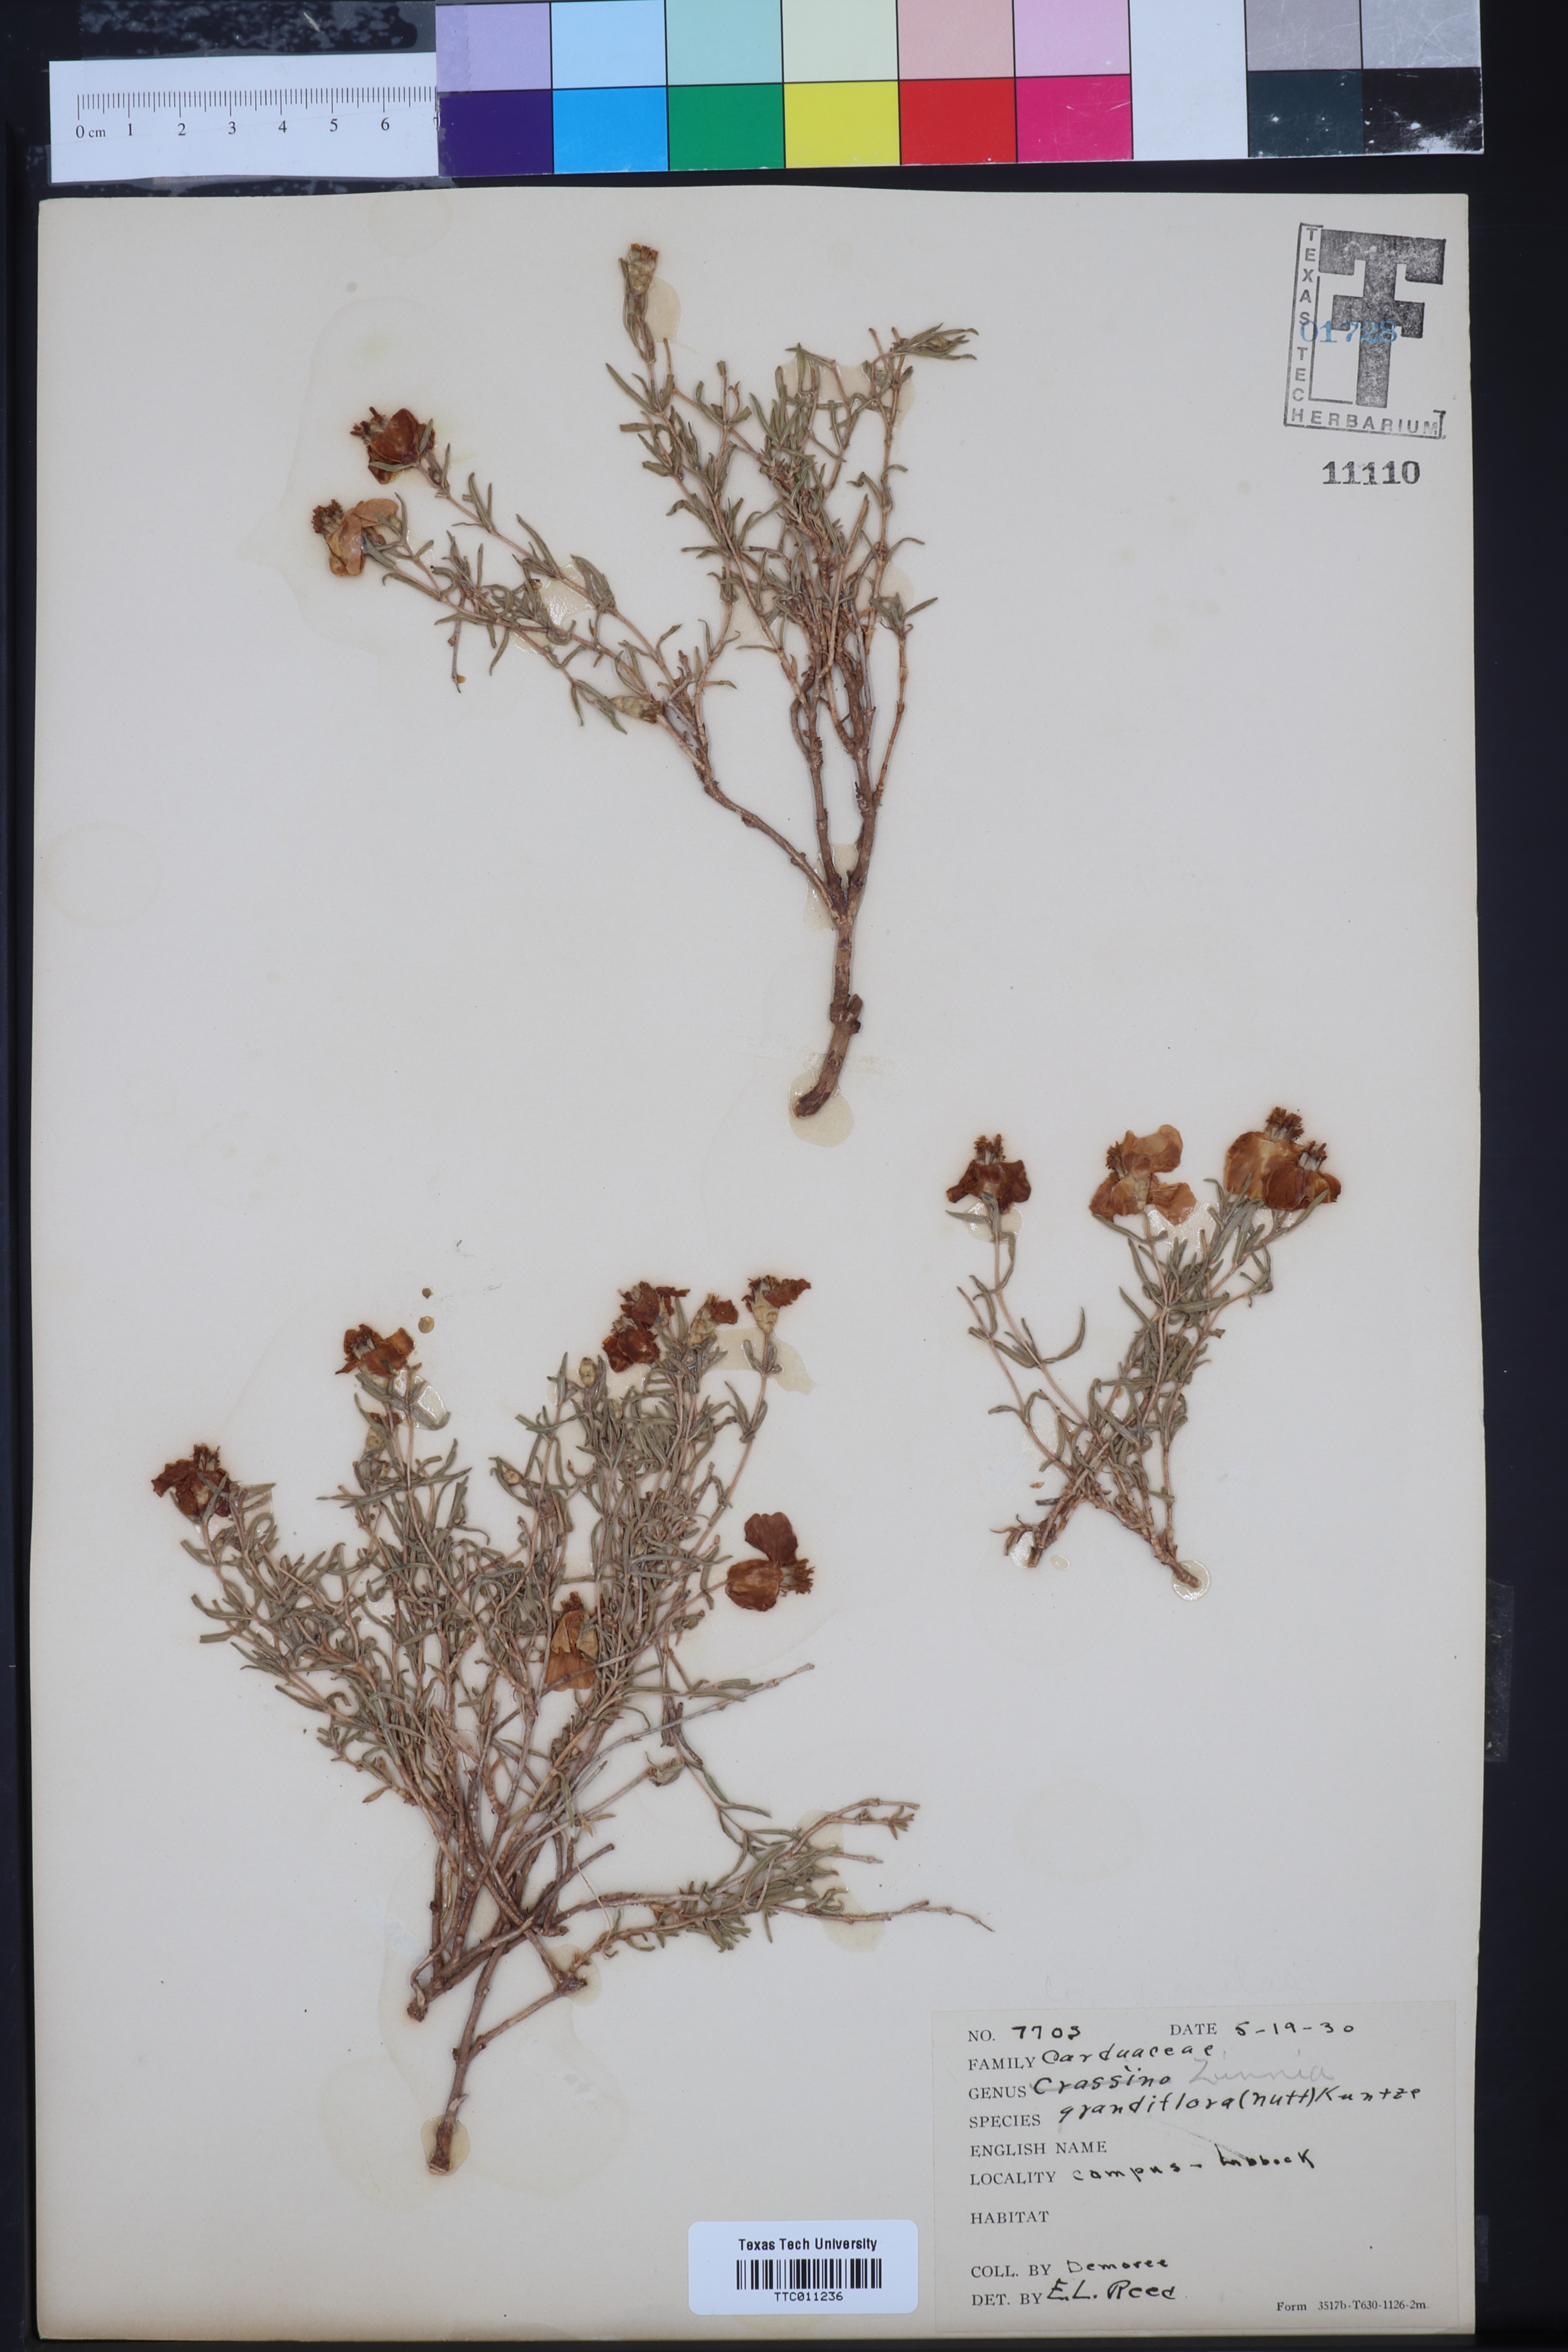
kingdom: Plantae
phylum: Tracheophyta
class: Magnoliopsida
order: Asterales
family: Asteraceae
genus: Zinnia
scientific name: Zinnia grandiflora
